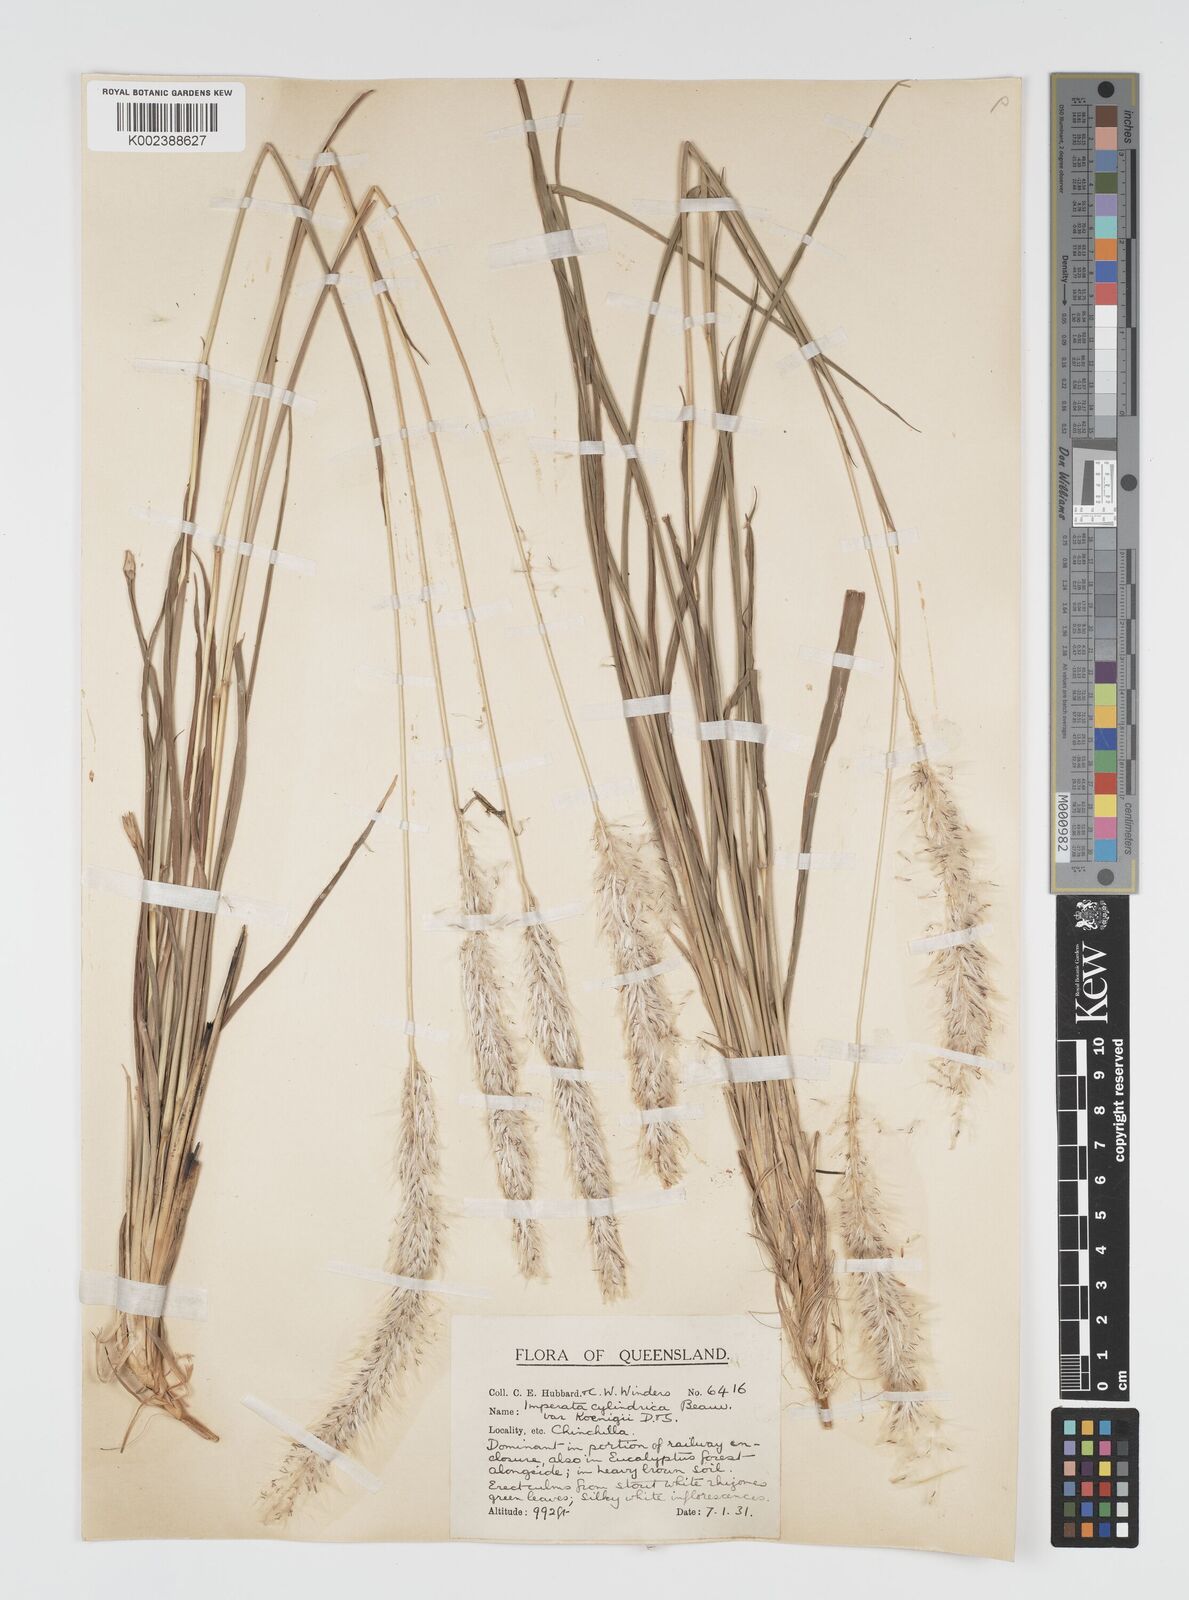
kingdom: Plantae
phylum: Tracheophyta
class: Liliopsida
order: Poales
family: Poaceae
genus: Imperata
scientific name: Imperata cylindrica
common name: Cogongrass
